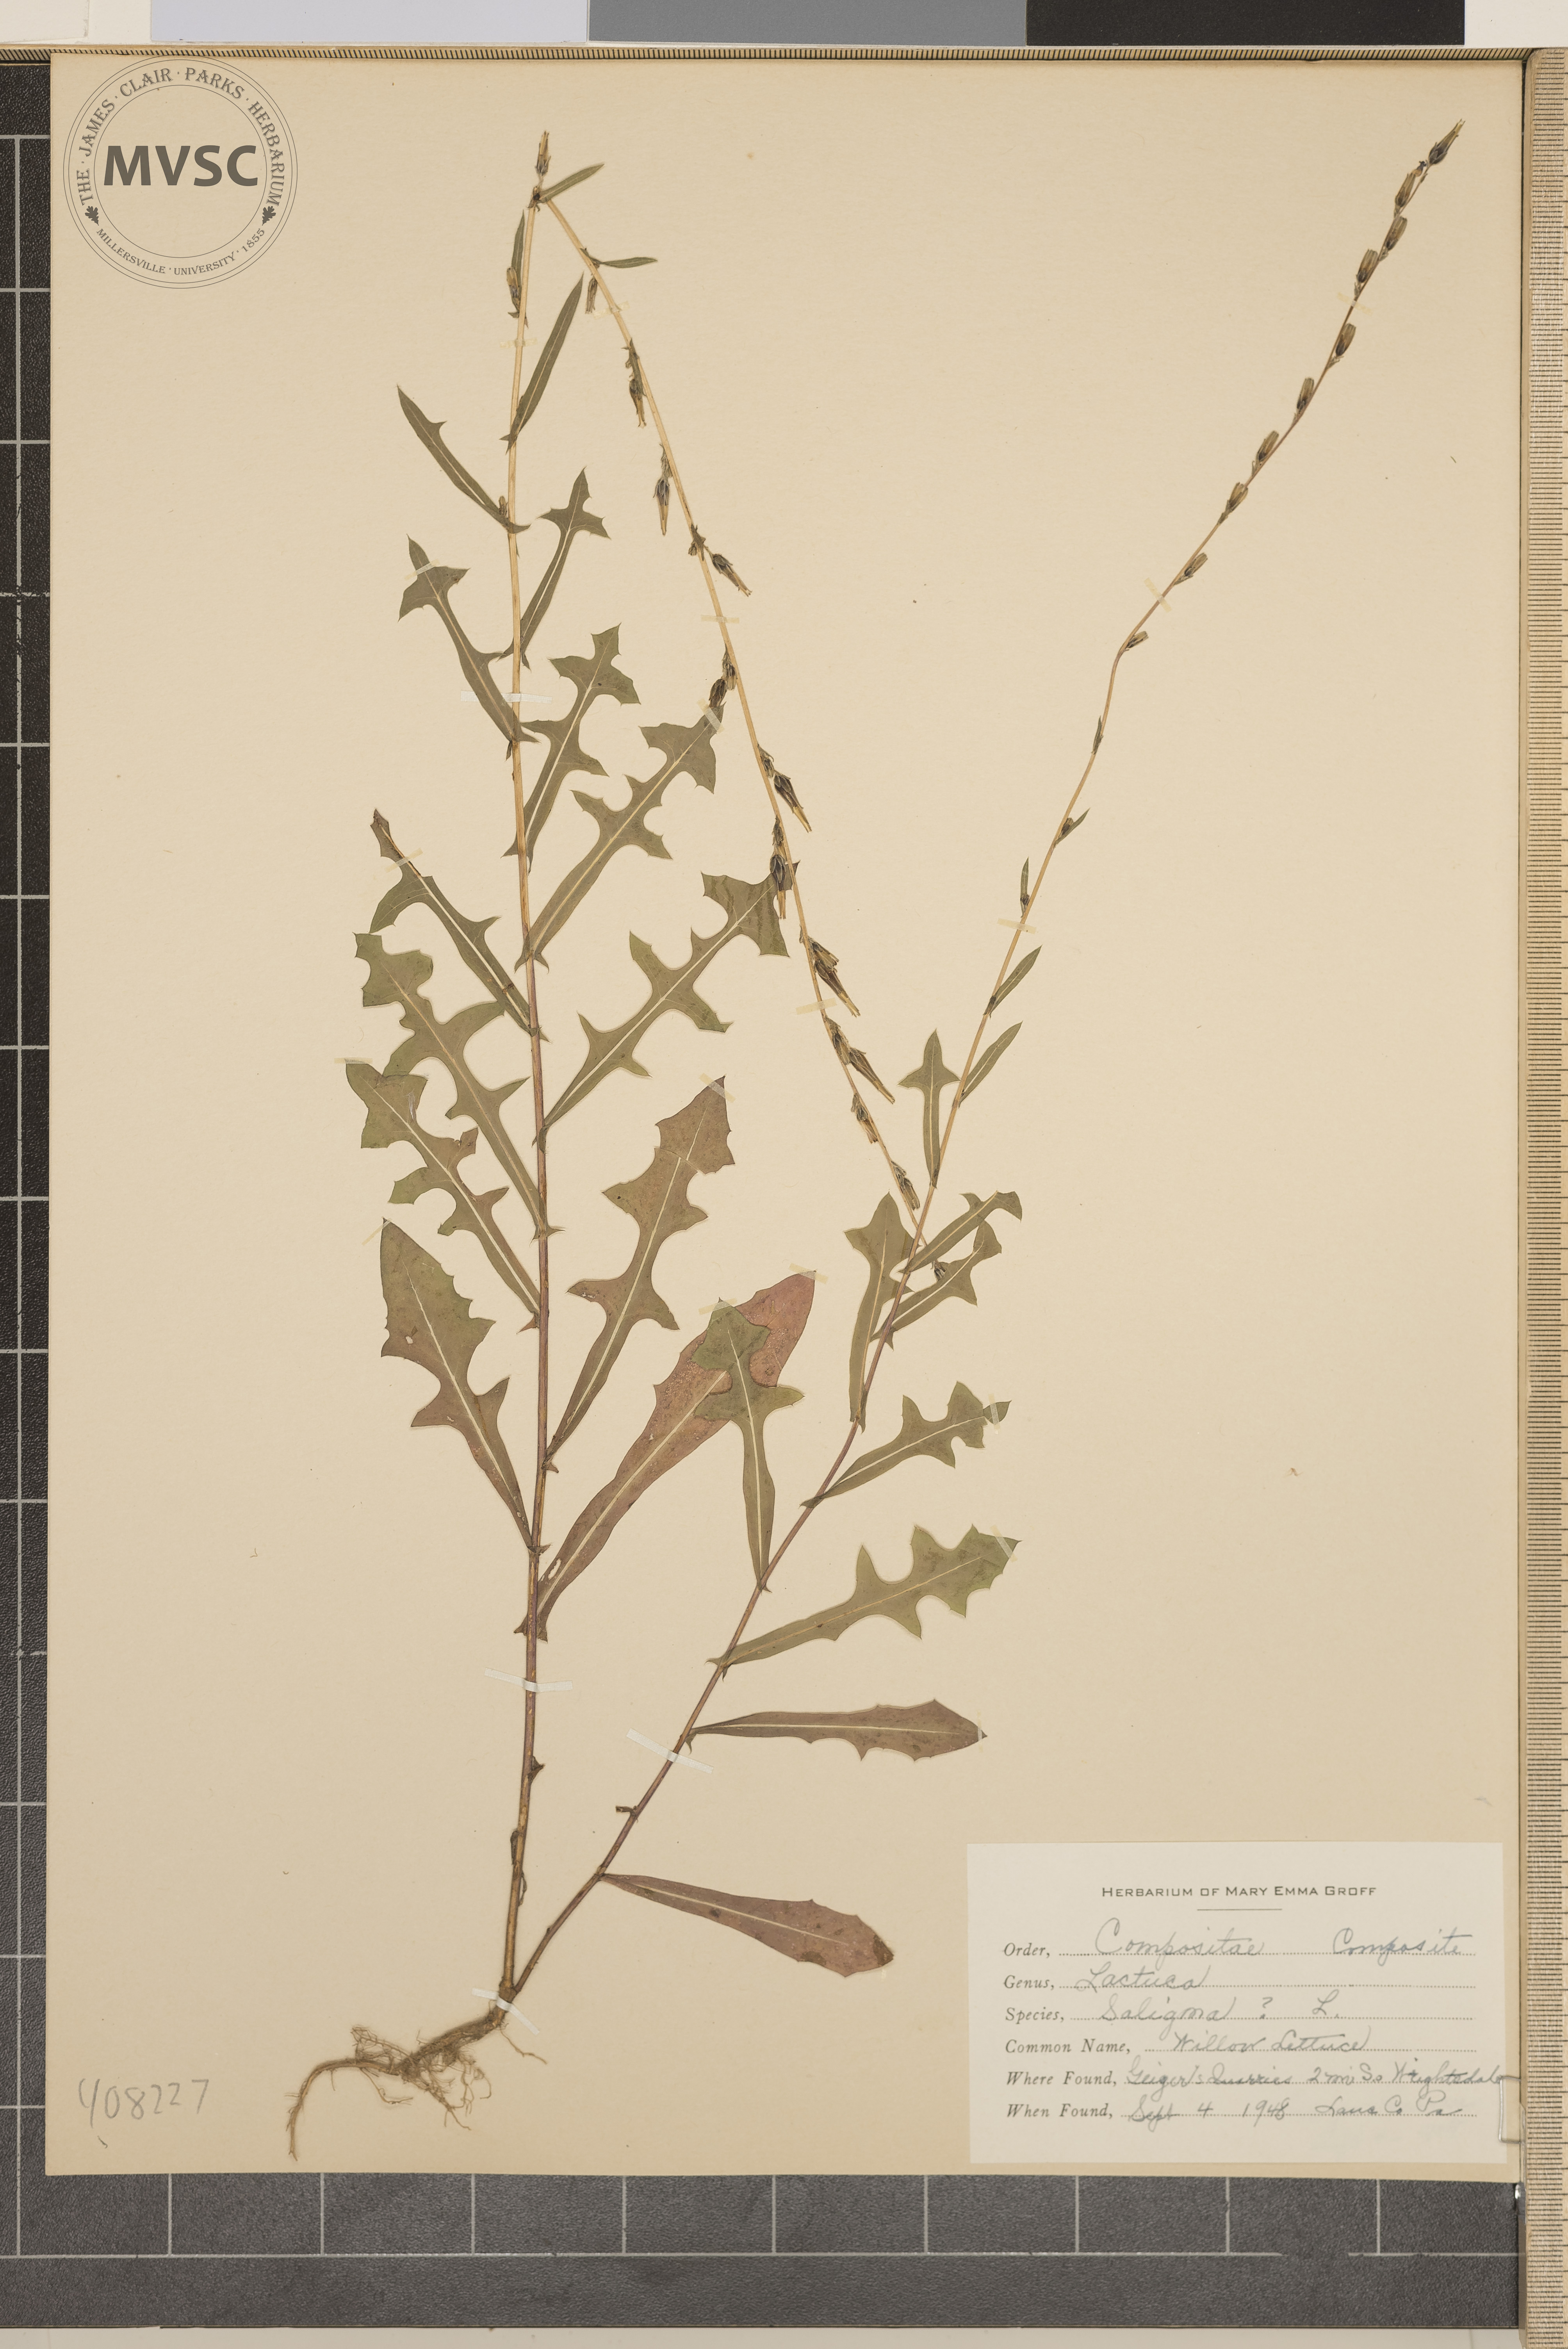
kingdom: Plantae
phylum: Tracheophyta
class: Magnoliopsida
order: Asterales
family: Asteraceae
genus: Lactuca
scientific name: Lactuca saligna
